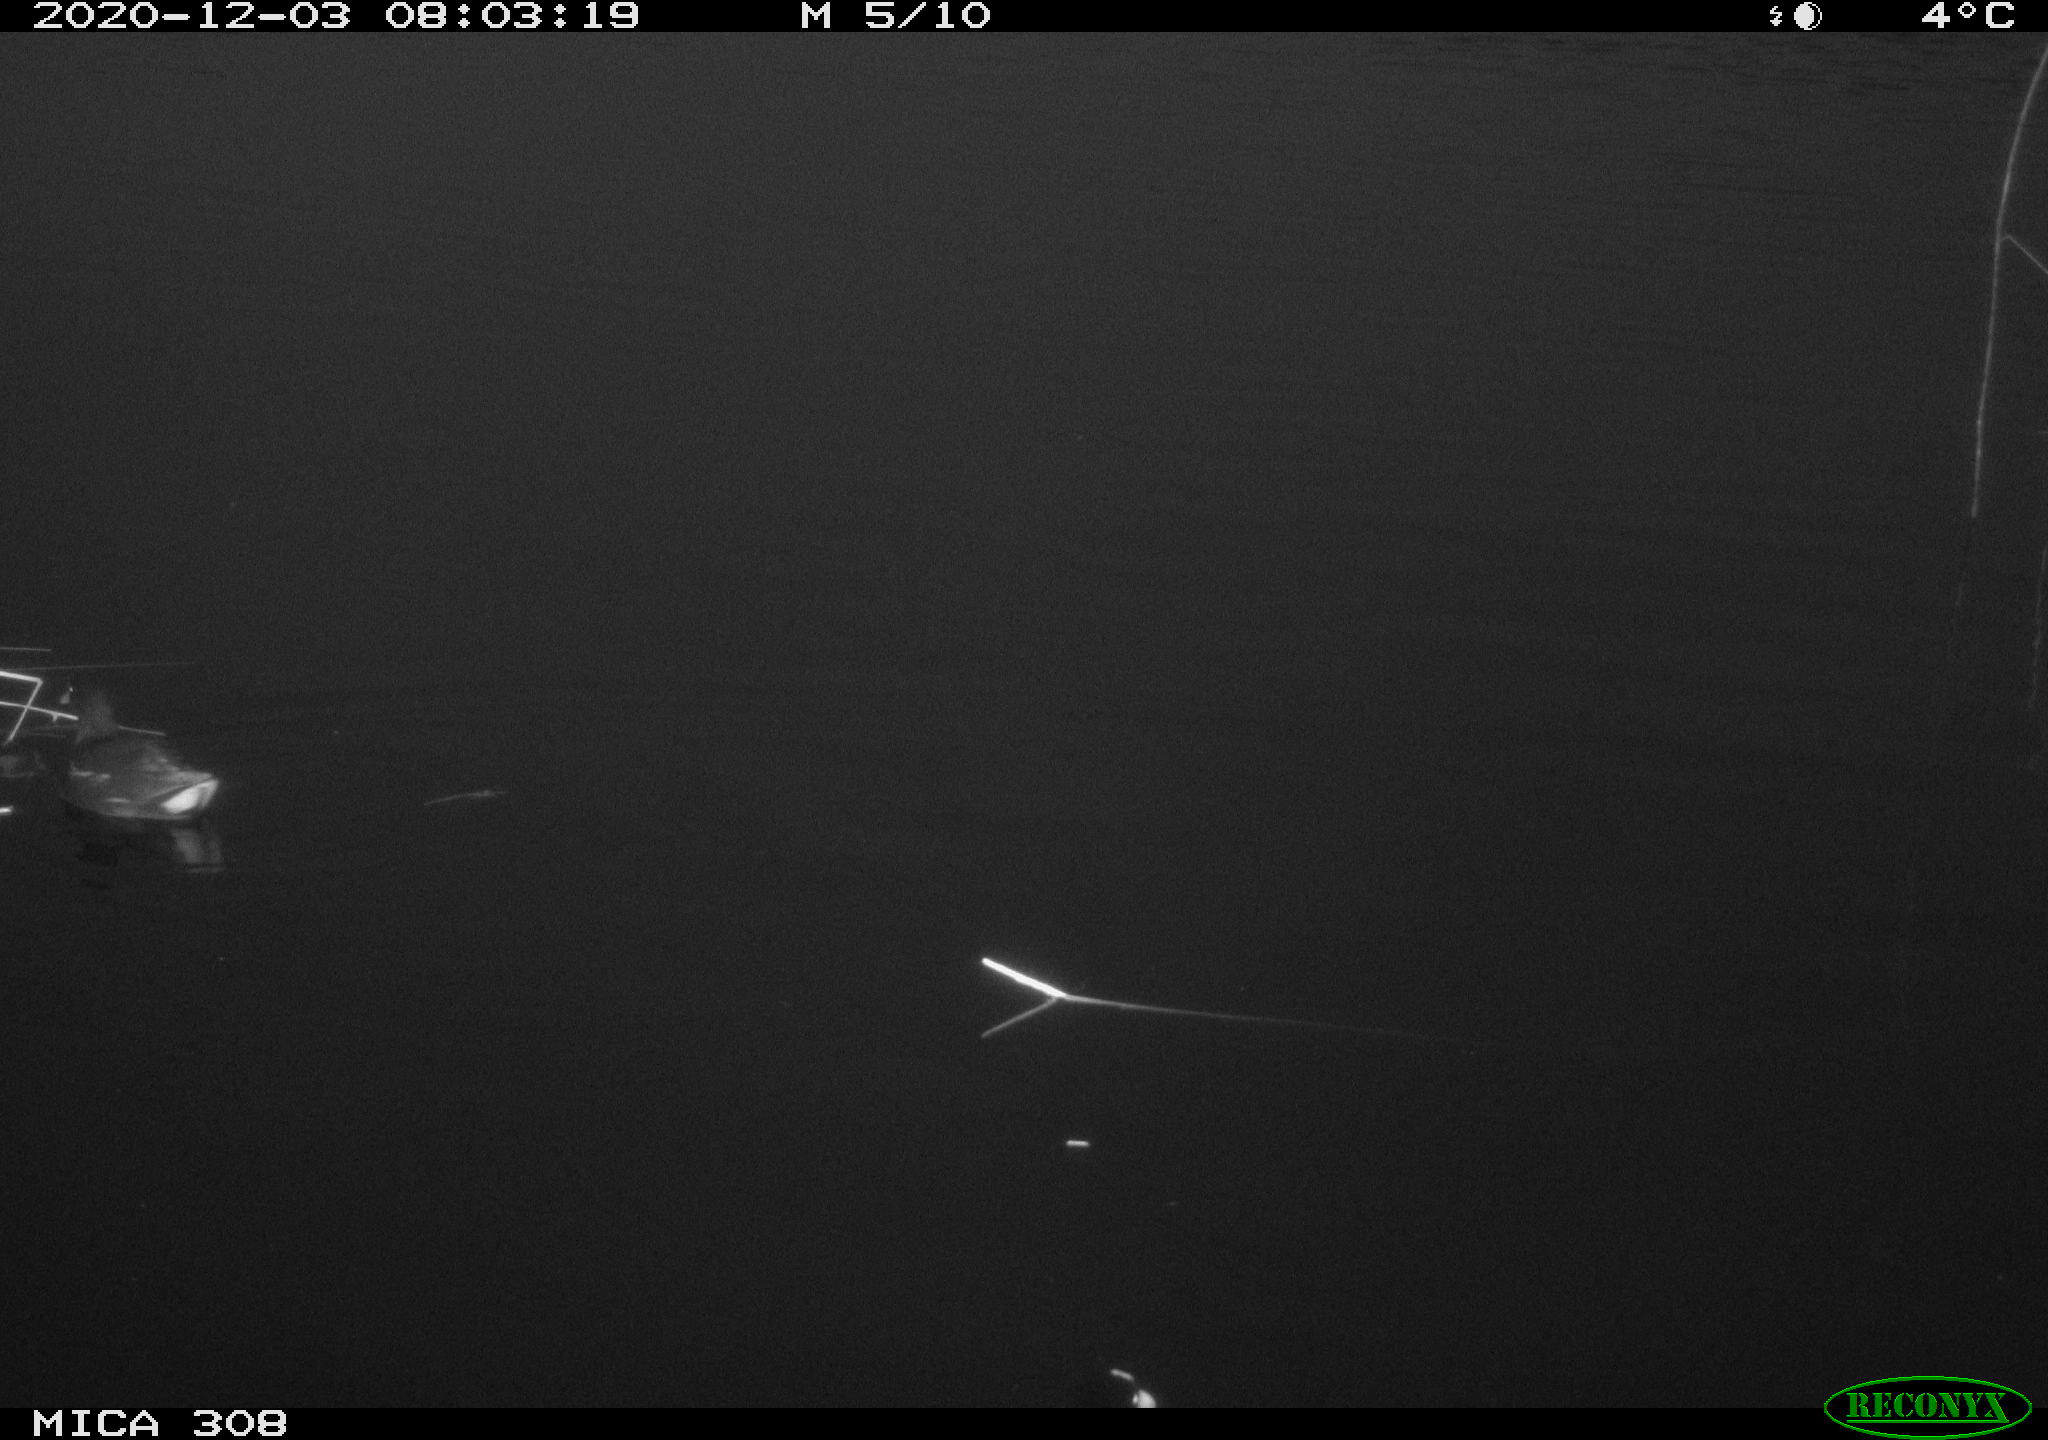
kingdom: Animalia
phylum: Chordata
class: Aves
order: Gruiformes
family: Rallidae
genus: Gallinula
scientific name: Gallinula chloropus
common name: Common moorhen
